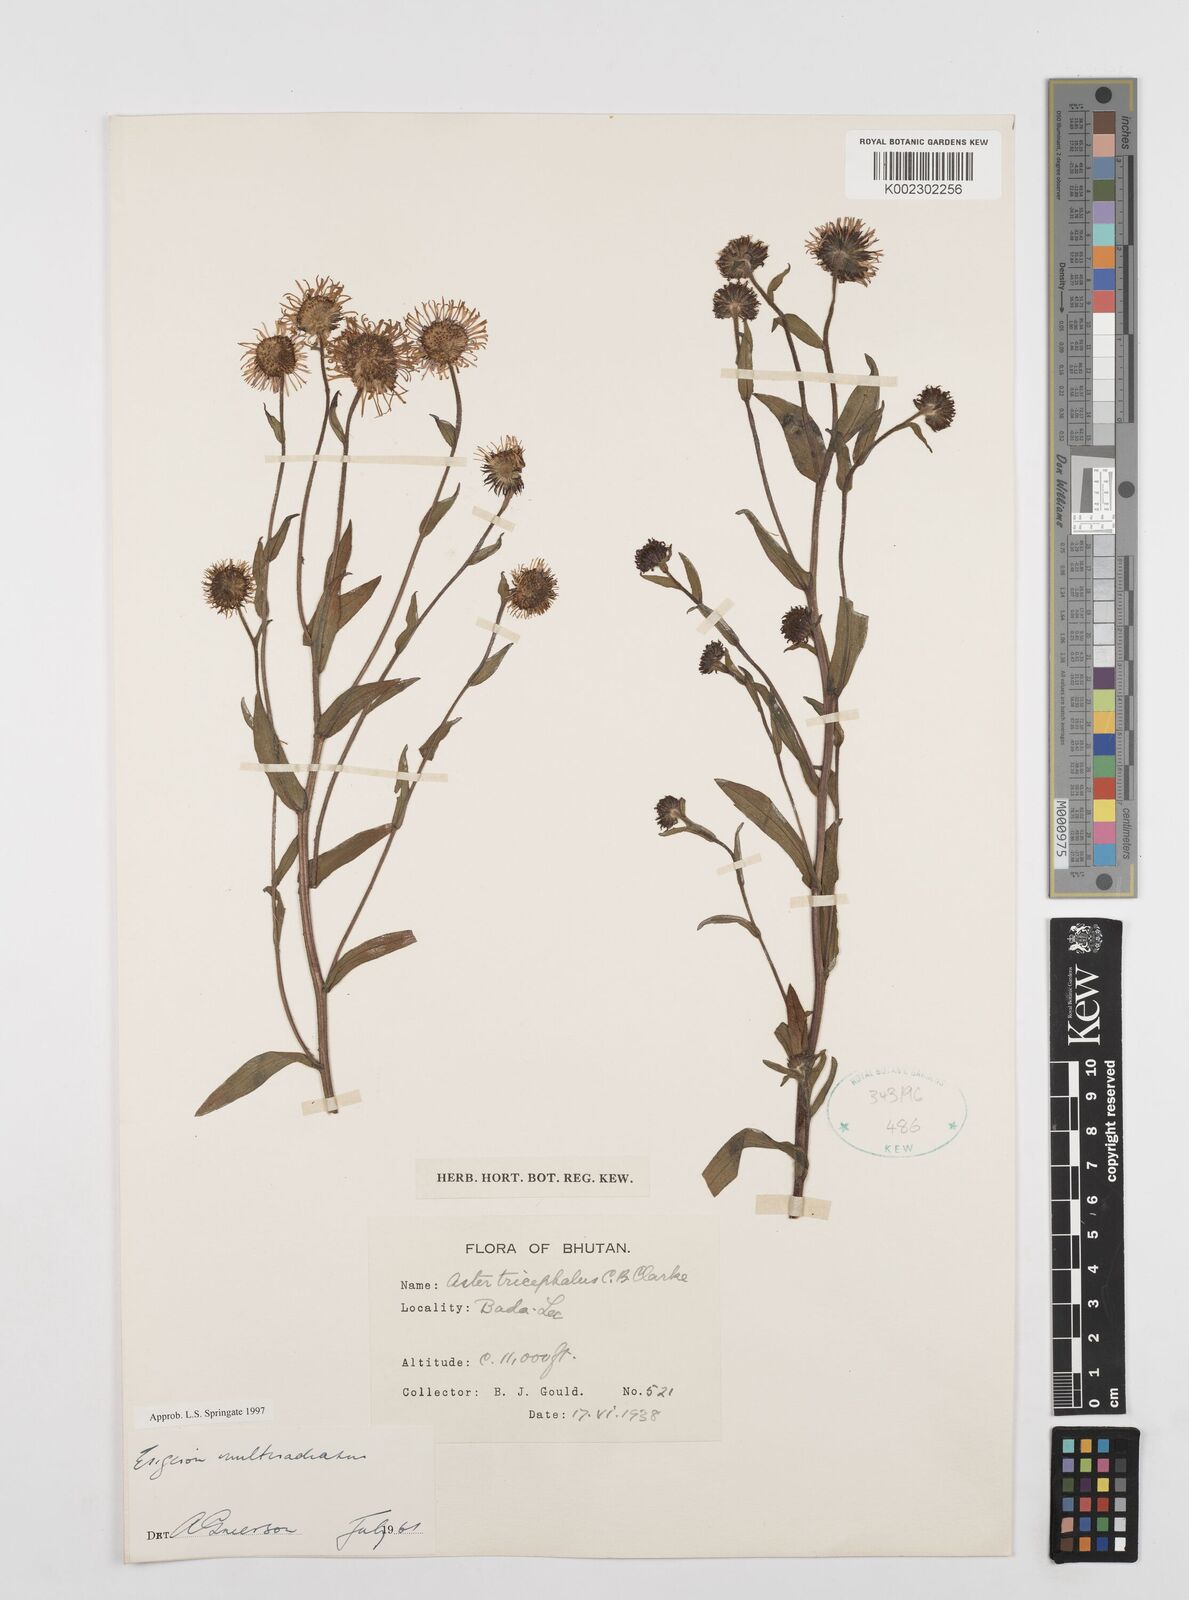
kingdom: Plantae
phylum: Tracheophyta
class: Magnoliopsida
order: Asterales
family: Asteraceae
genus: Erigeron
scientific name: Erigeron multiradiatus
